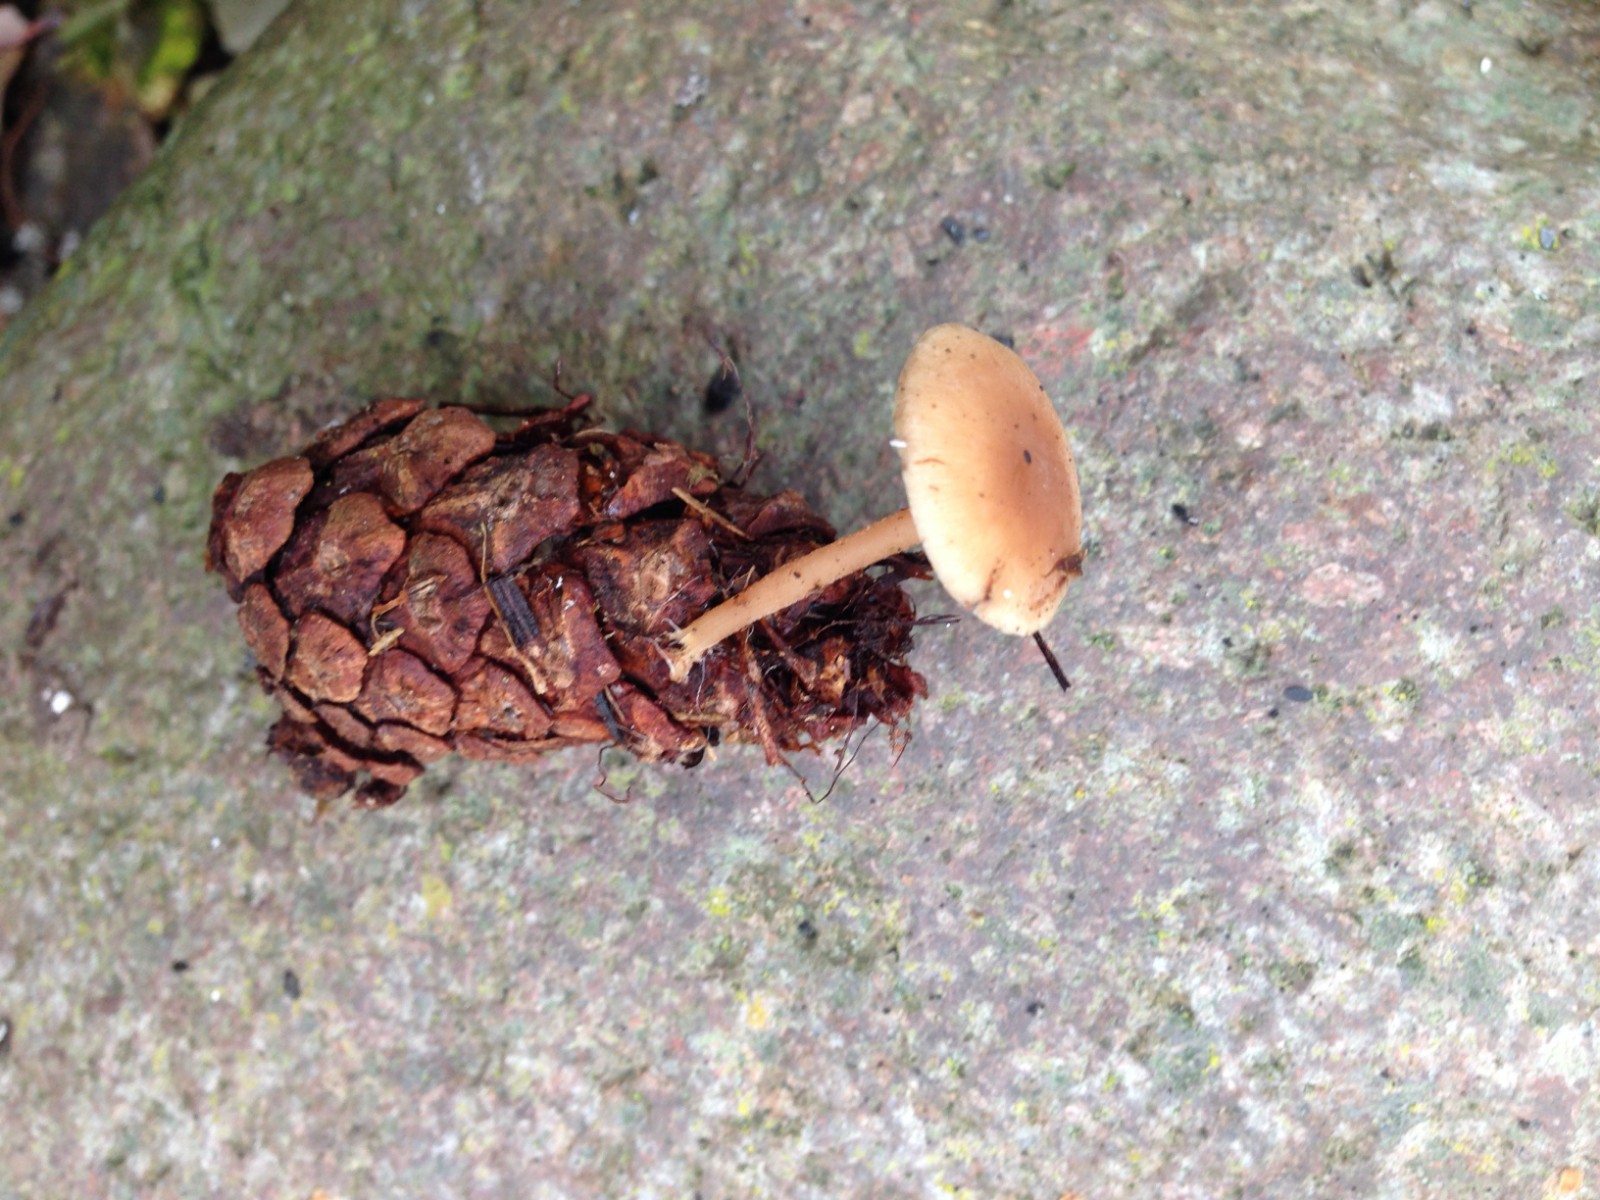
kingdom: Fungi
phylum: Basidiomycota
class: Agaricomycetes
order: Agaricales
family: Marasmiaceae
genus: Baeospora
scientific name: Baeospora myosura
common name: koglebruskhat
